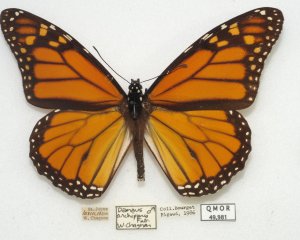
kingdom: Animalia
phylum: Arthropoda
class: Insecta
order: Lepidoptera
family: Nymphalidae
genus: Danaus
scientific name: Danaus plexippus
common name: Monarch
